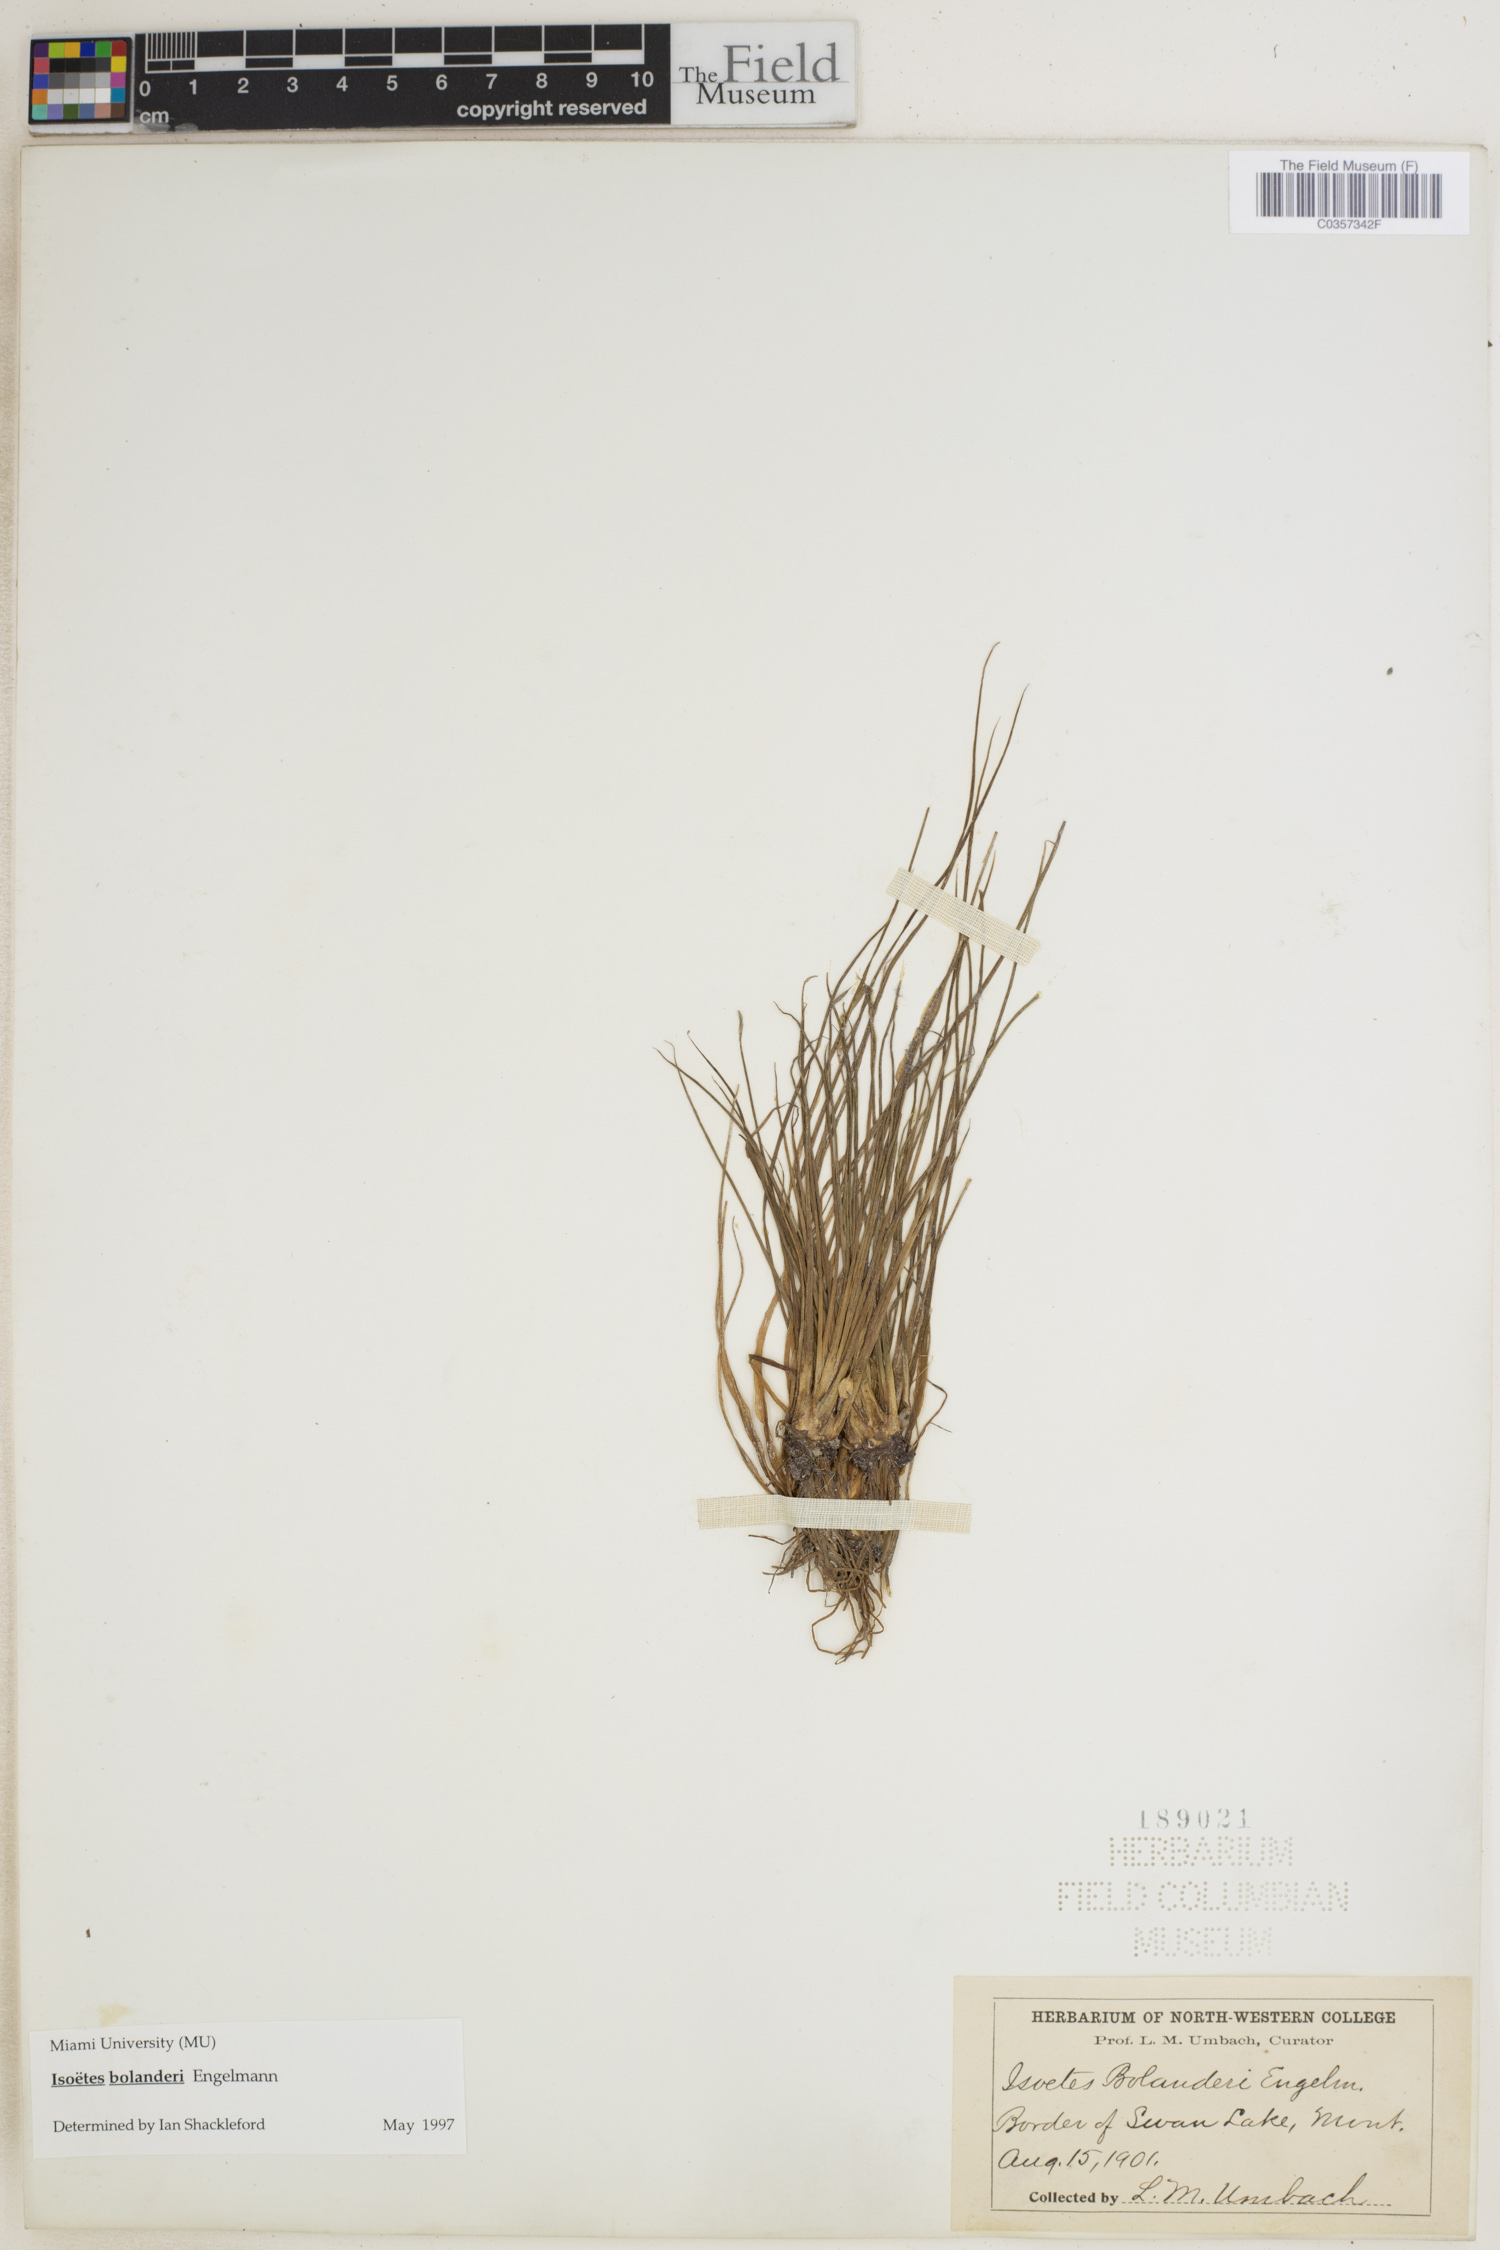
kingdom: Plantae
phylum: Tracheophyta
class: Lycopodiopsida
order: Isoetales
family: Isoetaceae
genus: Isoetes
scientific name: Isoetes bolanderi
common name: Bolander's quillwort
